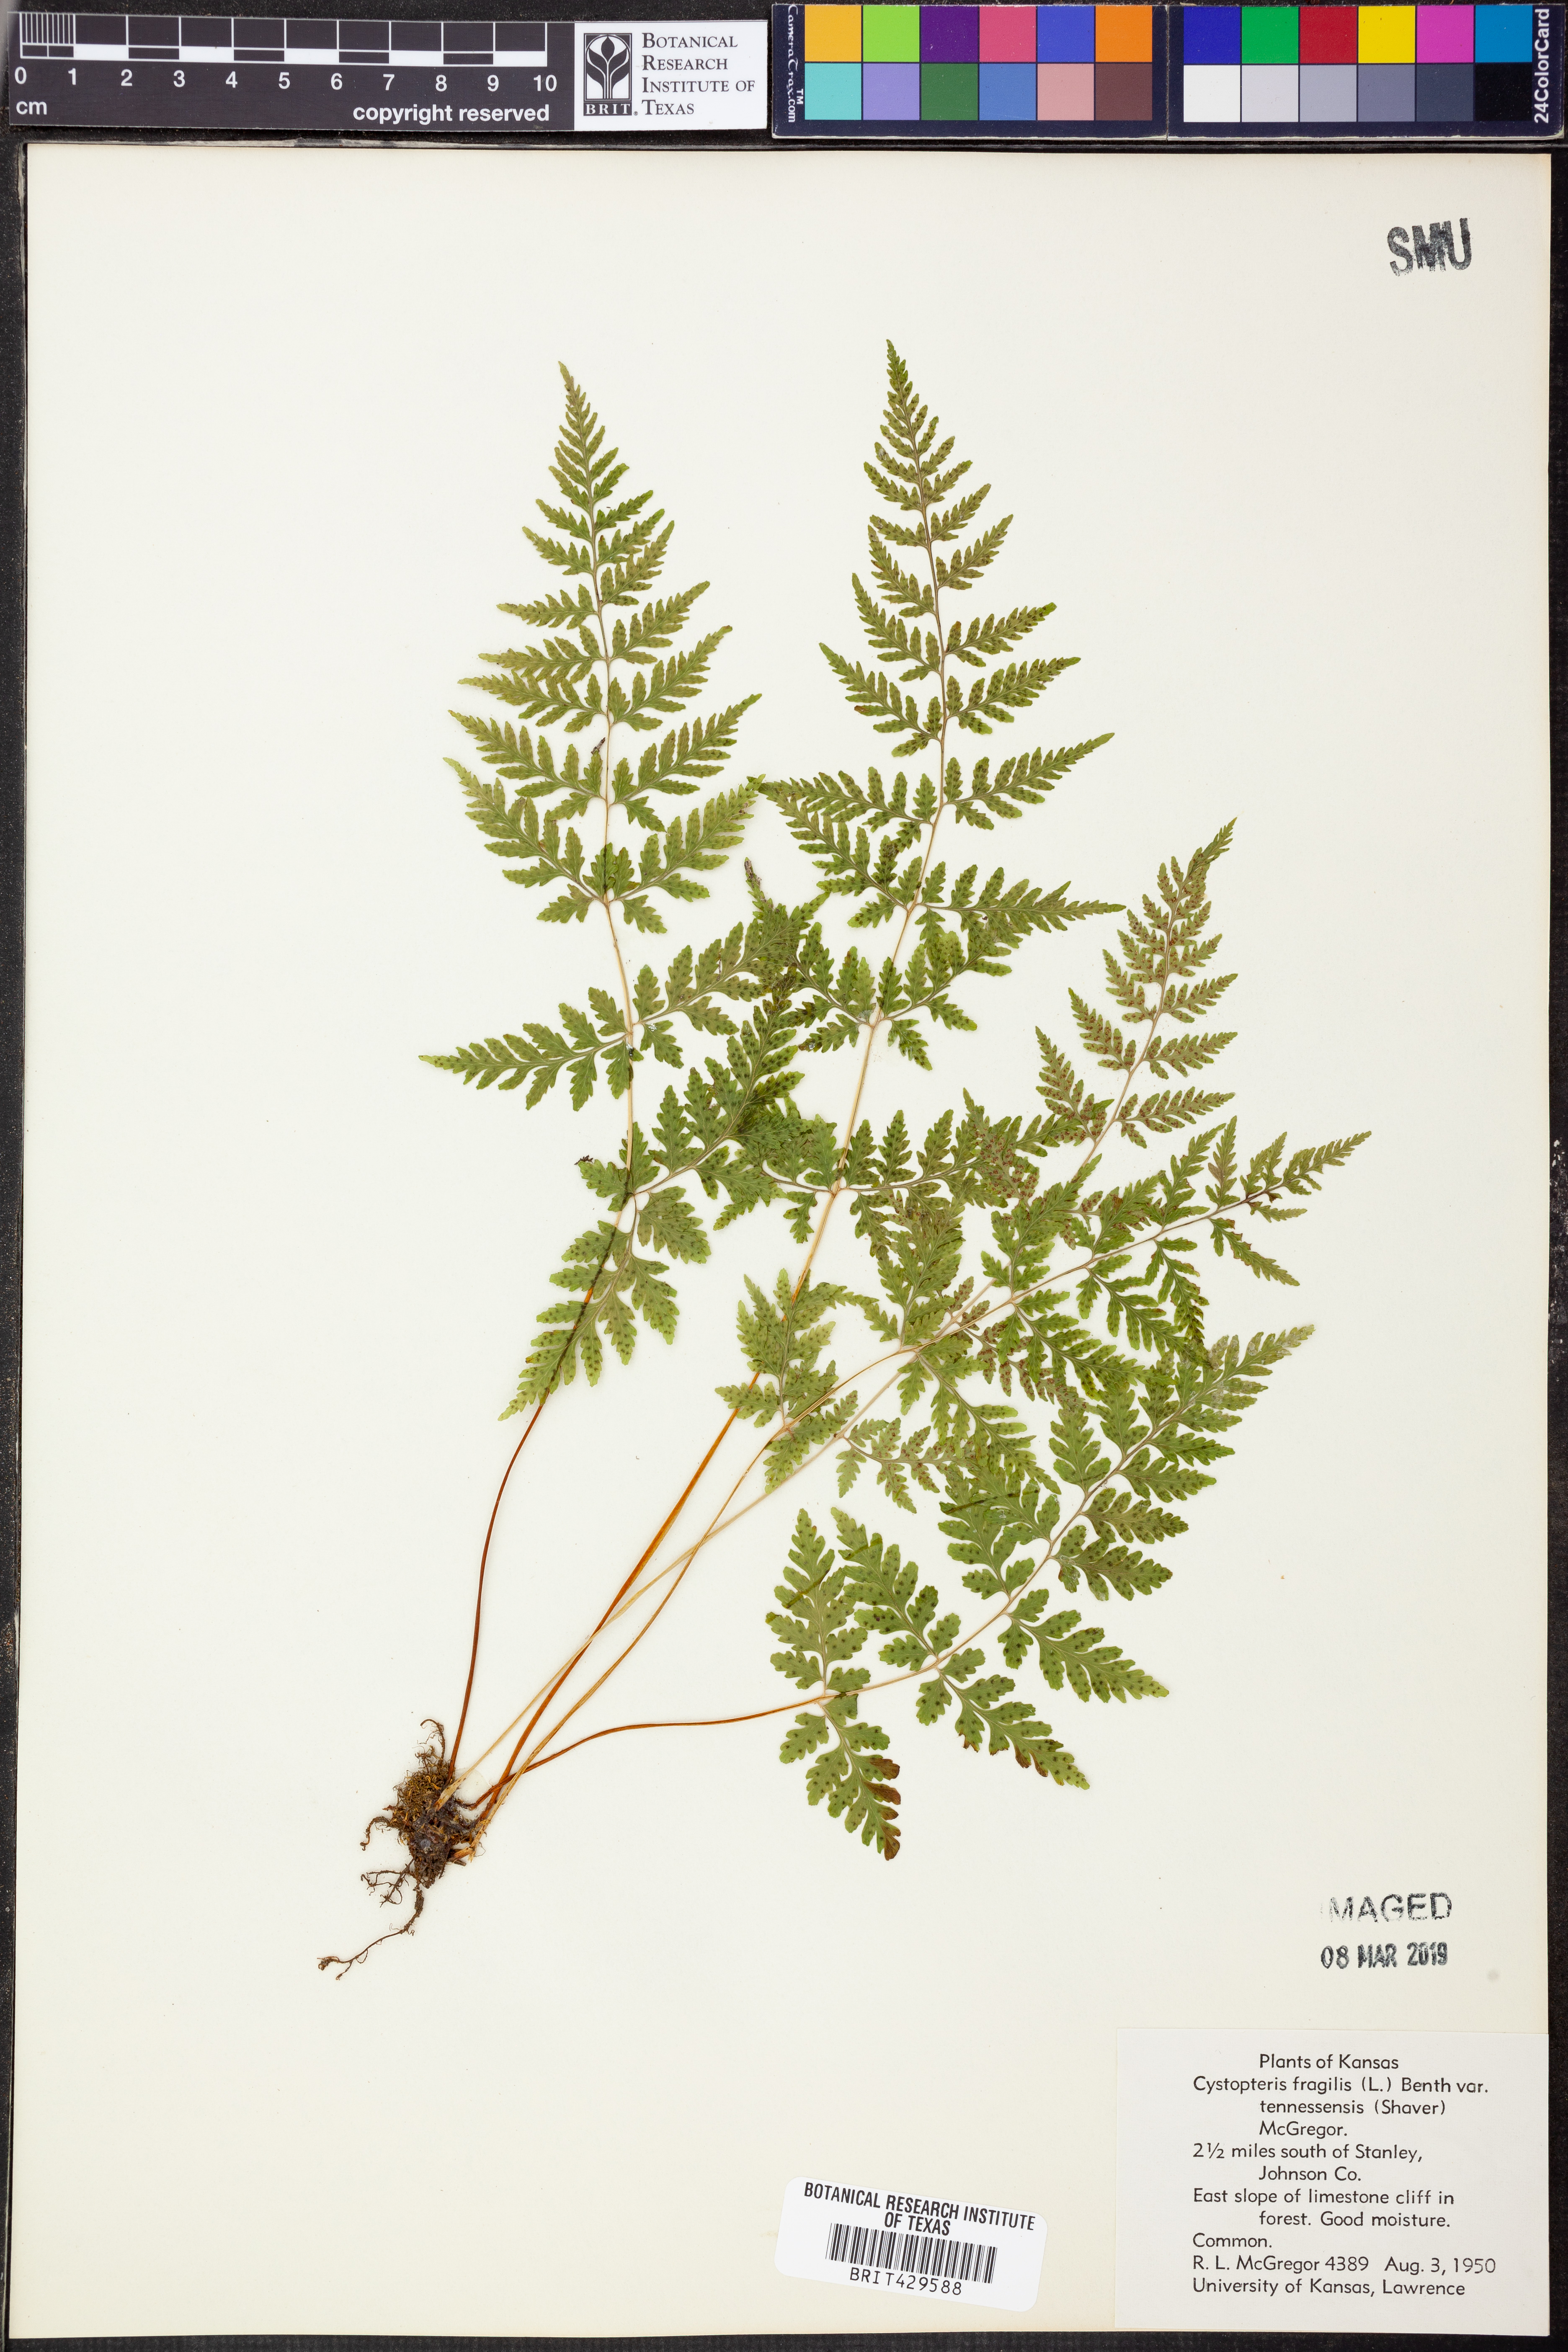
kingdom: Plantae
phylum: Tracheophyta
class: Polypodiopsida
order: Polypodiales
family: Cystopteridaceae
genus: Cystopteris
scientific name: Cystopteris tennesseensis
